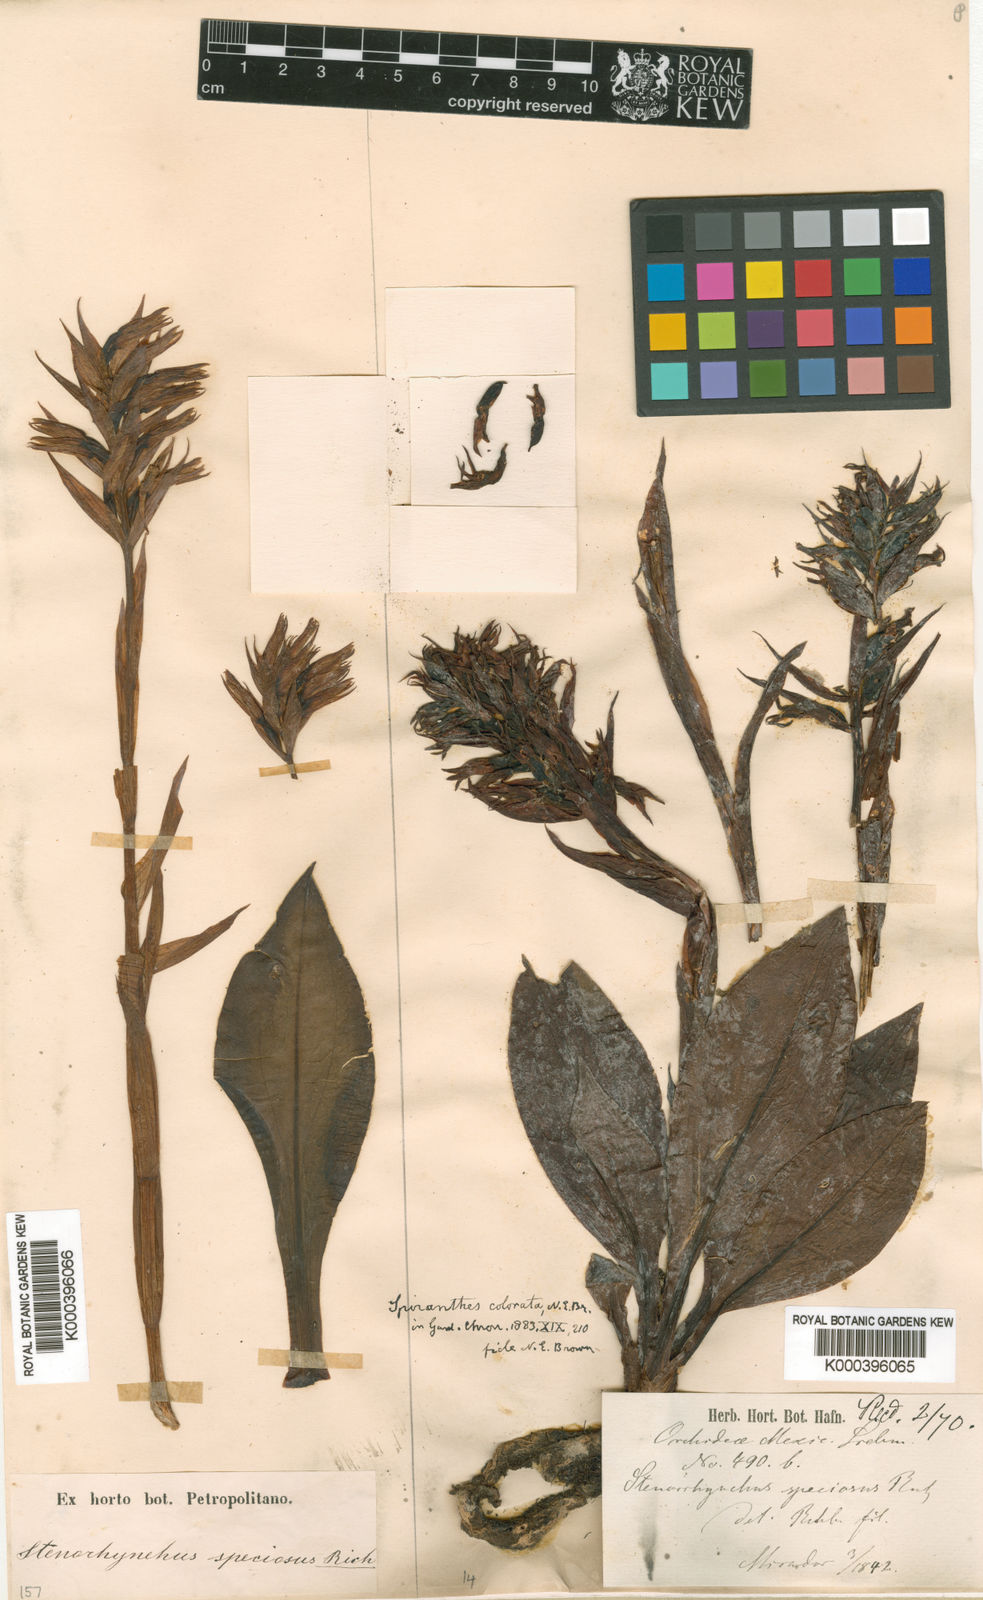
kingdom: Plantae
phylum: Tracheophyta
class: Liliopsida
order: Asparagales
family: Orchidaceae
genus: Stenorrhynchos
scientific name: Stenorrhynchos speciosum
